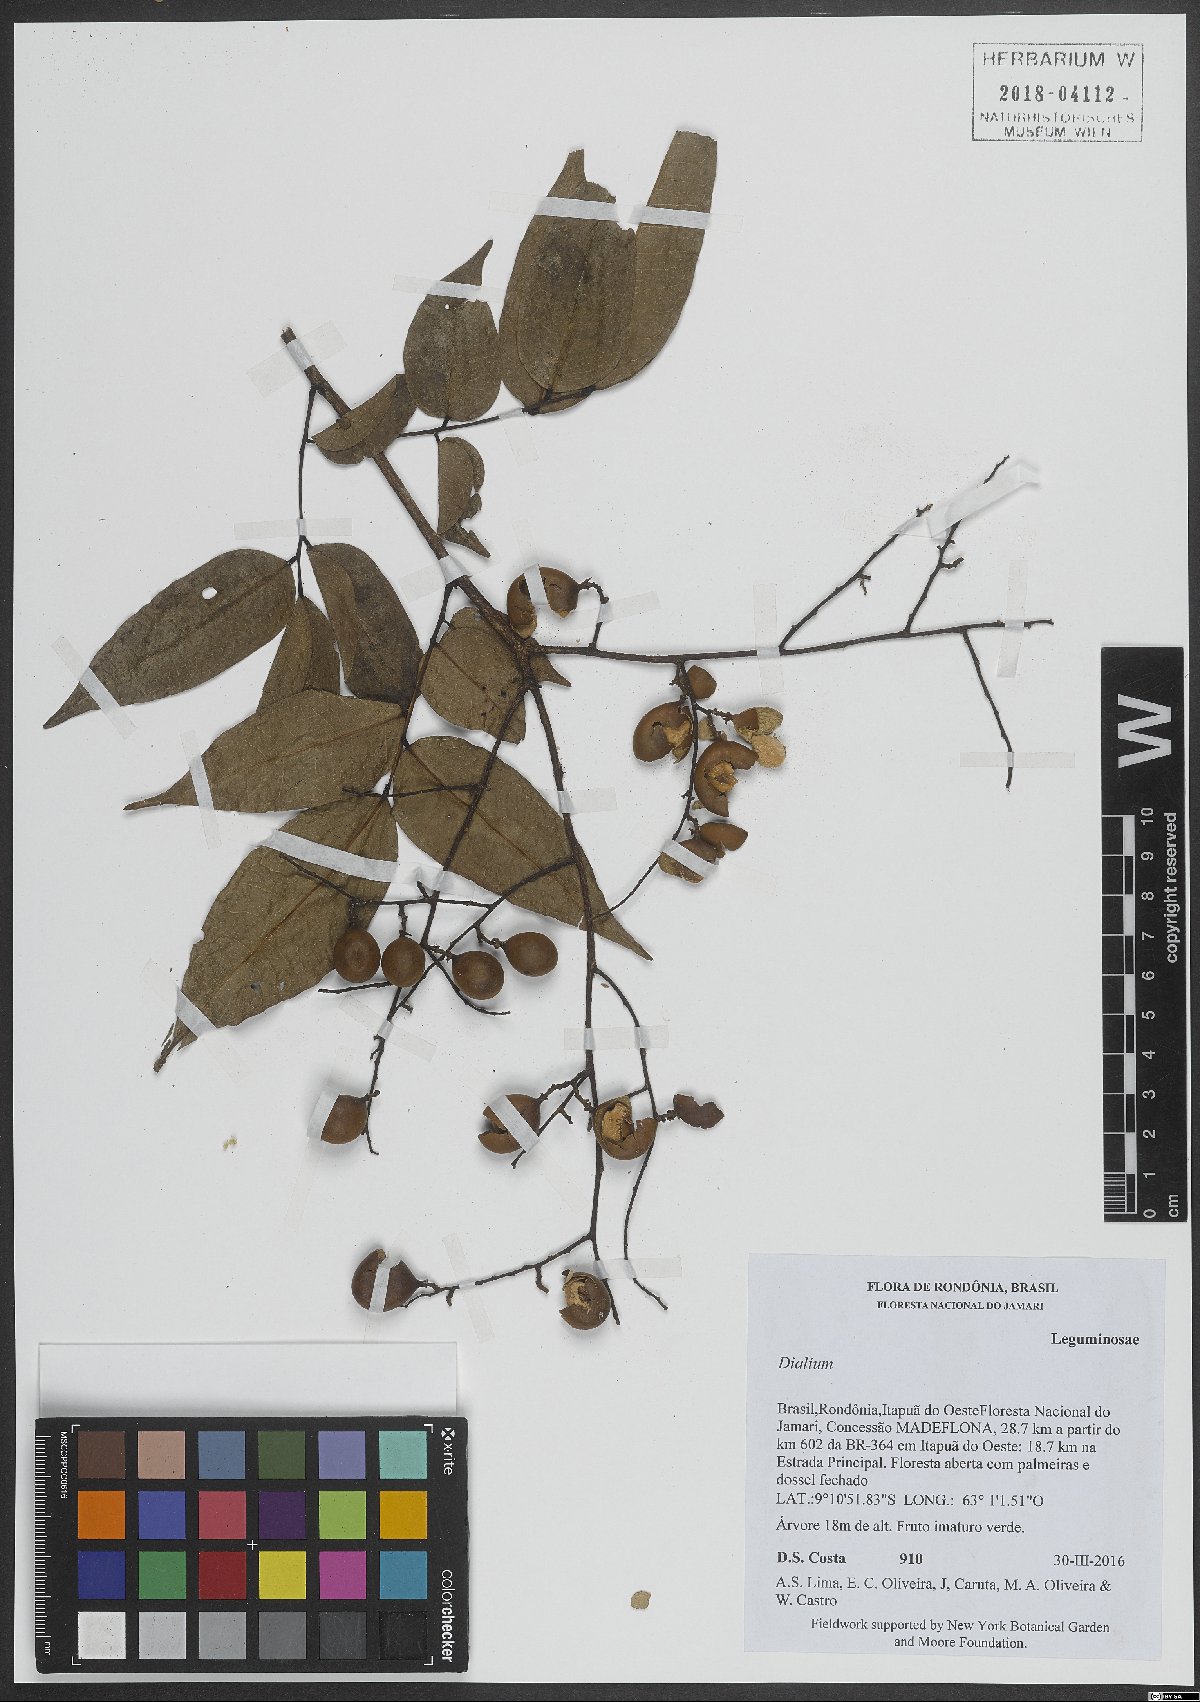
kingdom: Plantae
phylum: Tracheophyta
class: Magnoliopsida
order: Fabales
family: Fabaceae
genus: Dialium
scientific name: Dialium
